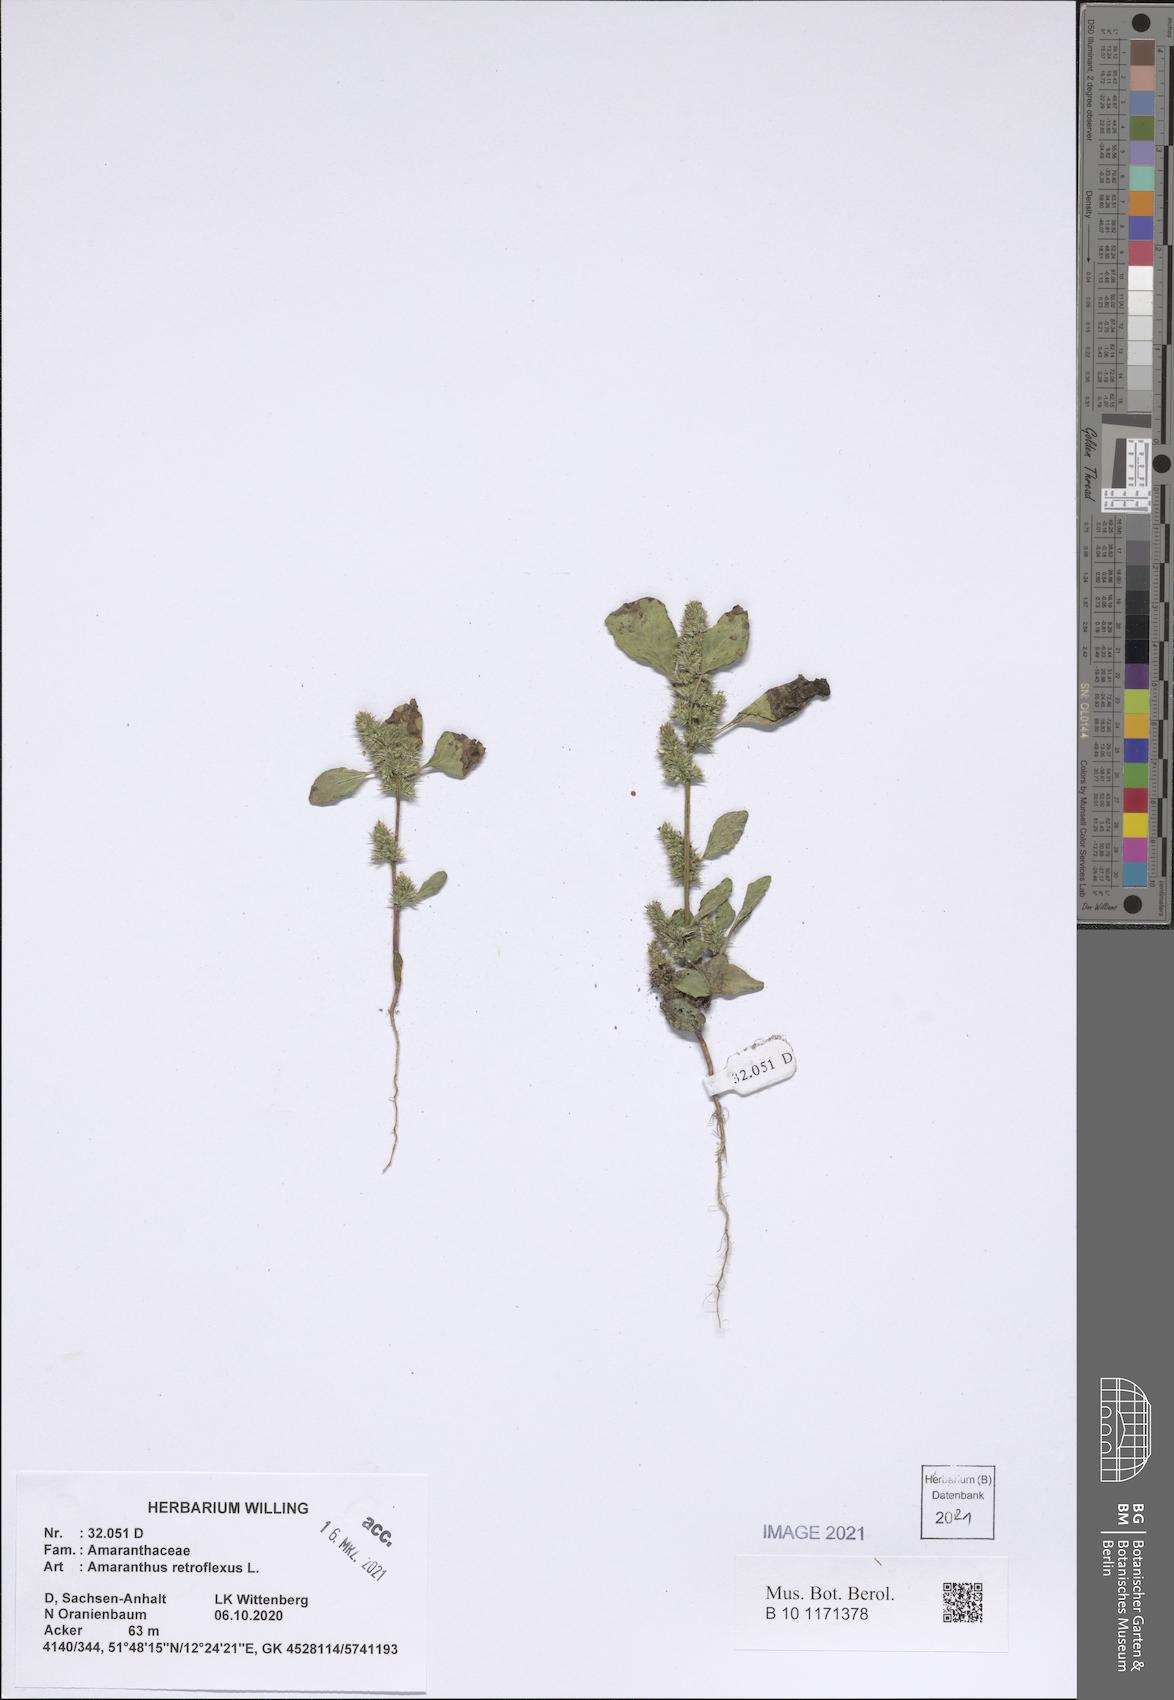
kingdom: Plantae
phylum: Tracheophyta
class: Magnoliopsida
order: Caryophyllales
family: Amaranthaceae
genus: Amaranthus
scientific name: Amaranthus retroflexus
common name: Redroot amaranth
